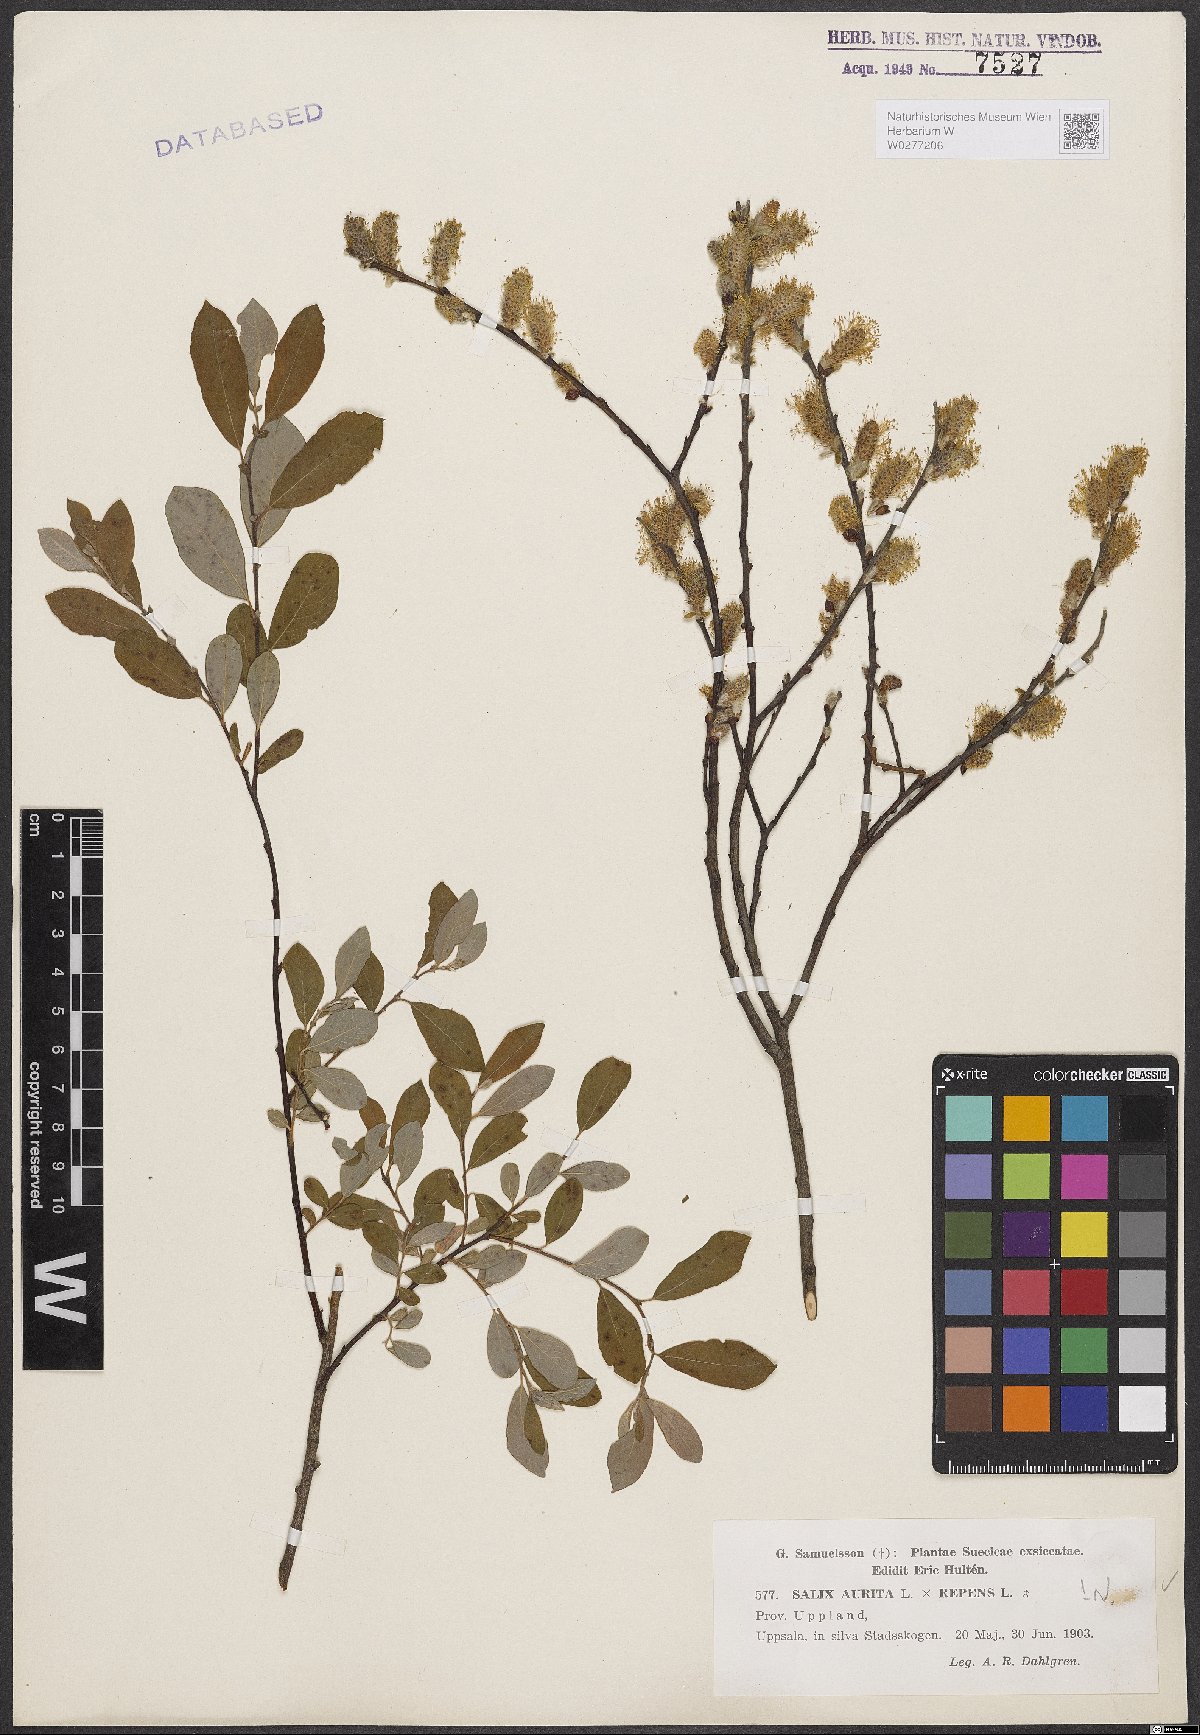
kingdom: Plantae
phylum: Tracheophyta
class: Magnoliopsida
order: Malpighiales
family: Salicaceae
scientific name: Salicaceae
